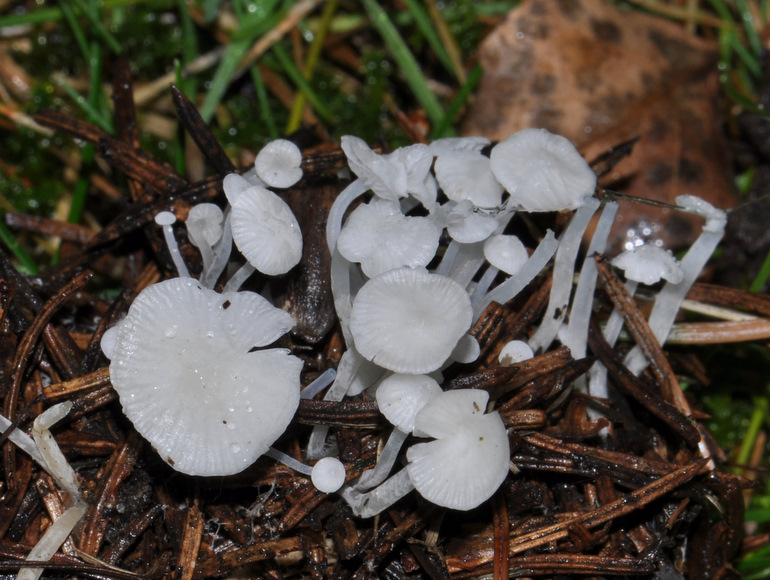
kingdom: Fungi
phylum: Basidiomycota
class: Agaricomycetes
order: Agaricales
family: Mycenaceae
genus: Hemimycena
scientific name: Hemimycena lactea
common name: mælkehvid huesvamp
